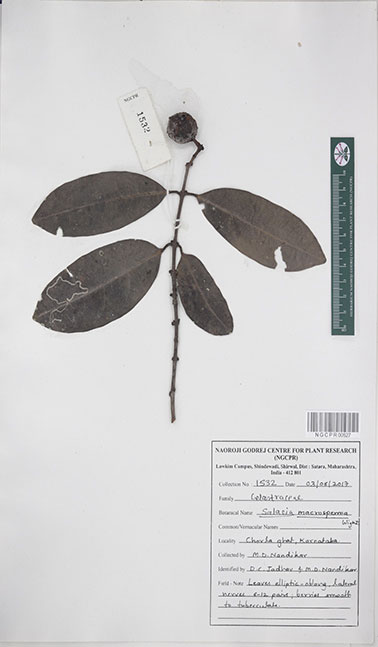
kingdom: Plantae
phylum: Tracheophyta
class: Magnoliopsida
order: Celastrales
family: Celastraceae
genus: Salacia
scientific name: Salacia macrosperma
